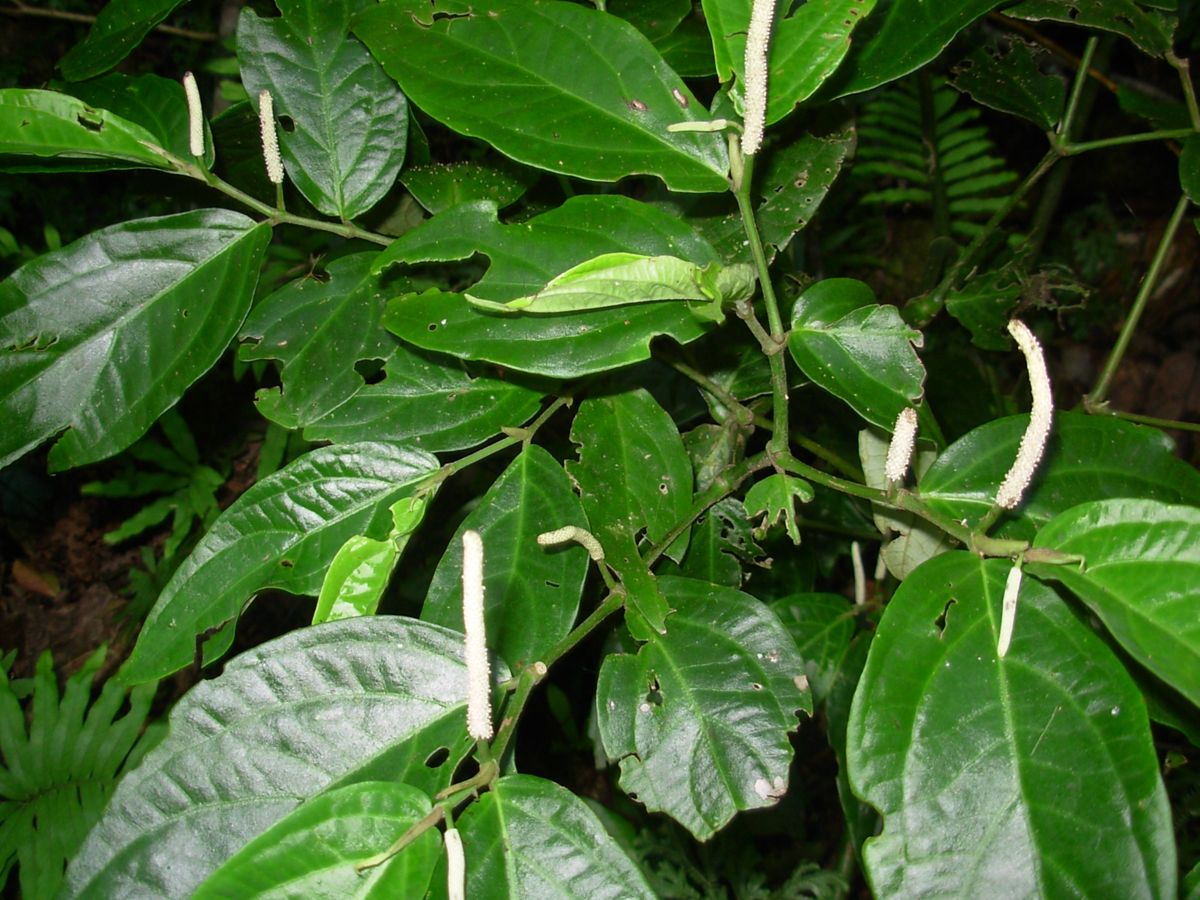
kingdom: Plantae
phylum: Tracheophyta
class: Magnoliopsida
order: Piperales
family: Piperaceae
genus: Piper
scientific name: Piper
